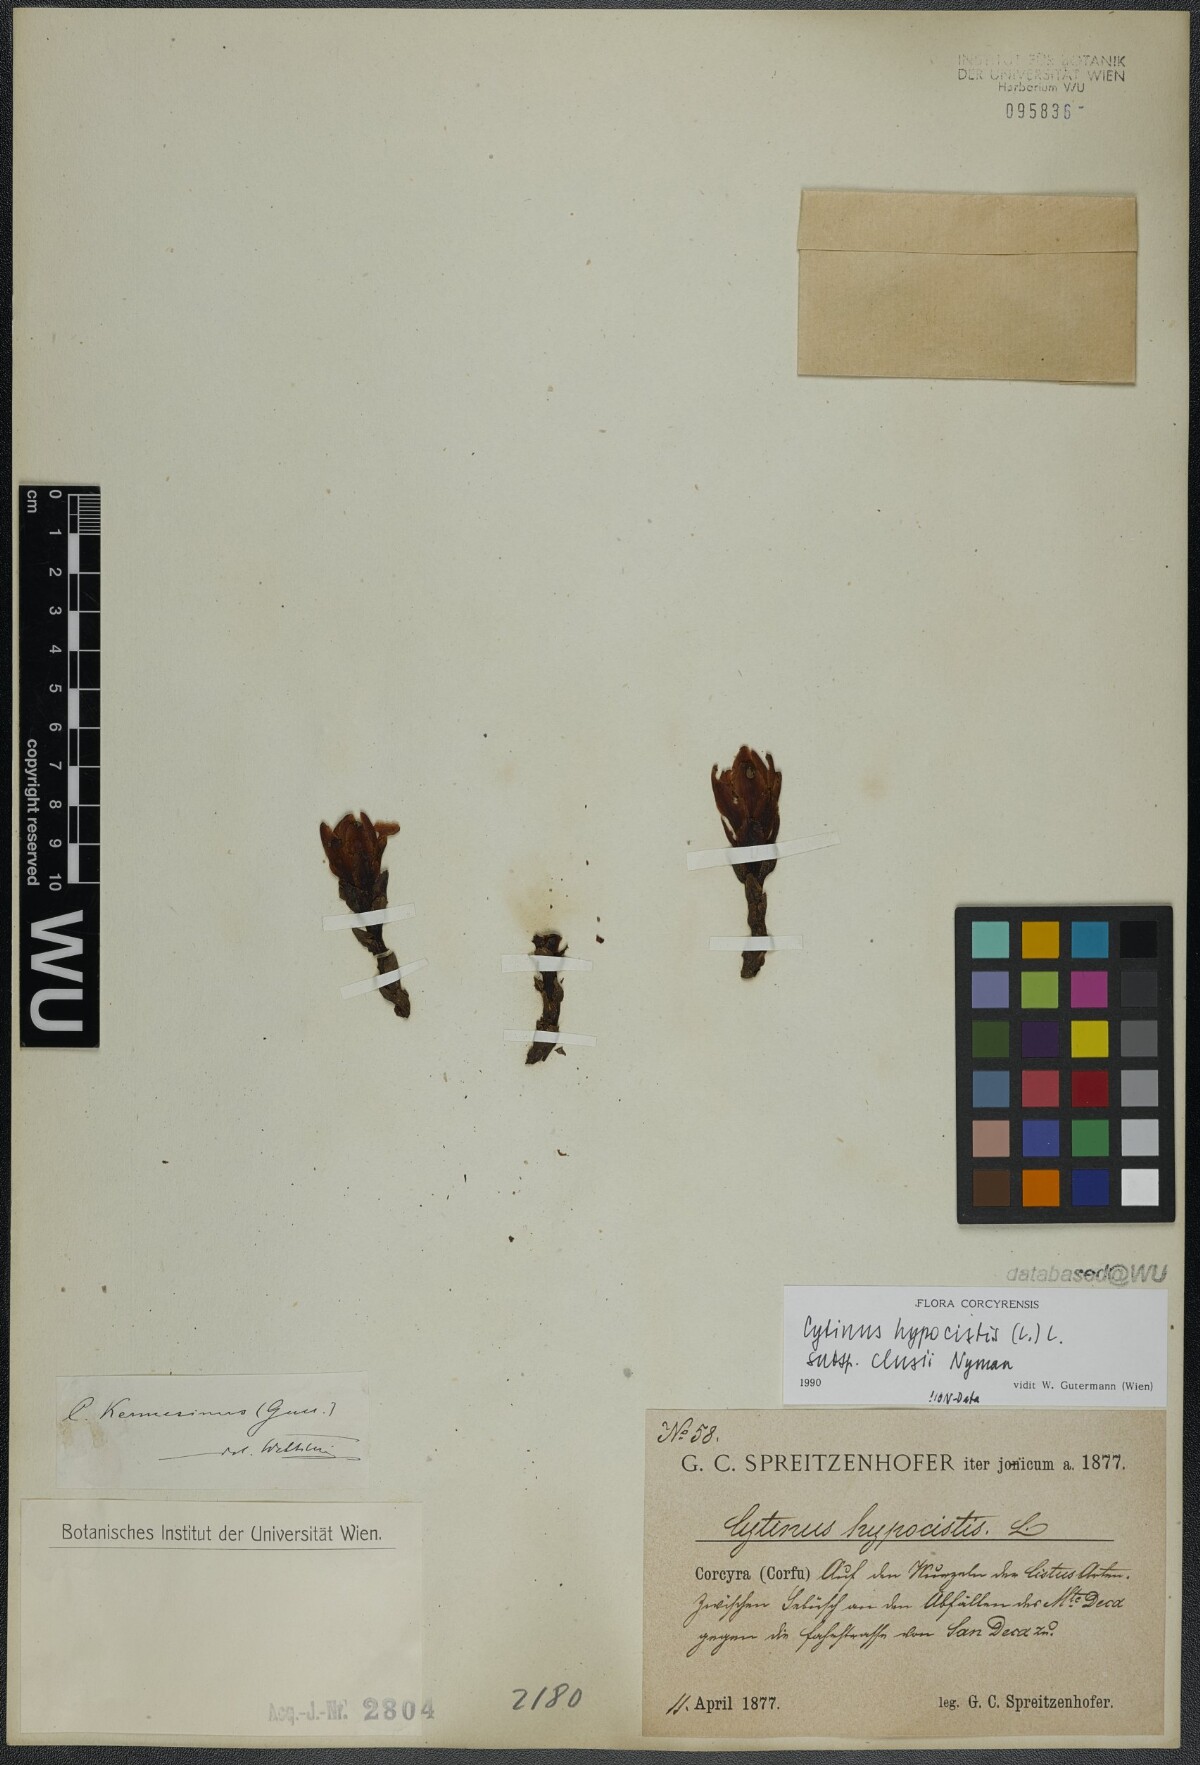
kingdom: Plantae
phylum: Tracheophyta
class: Magnoliopsida
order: Malvales
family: Cytinaceae
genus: Cytinus
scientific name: Cytinus ruber
